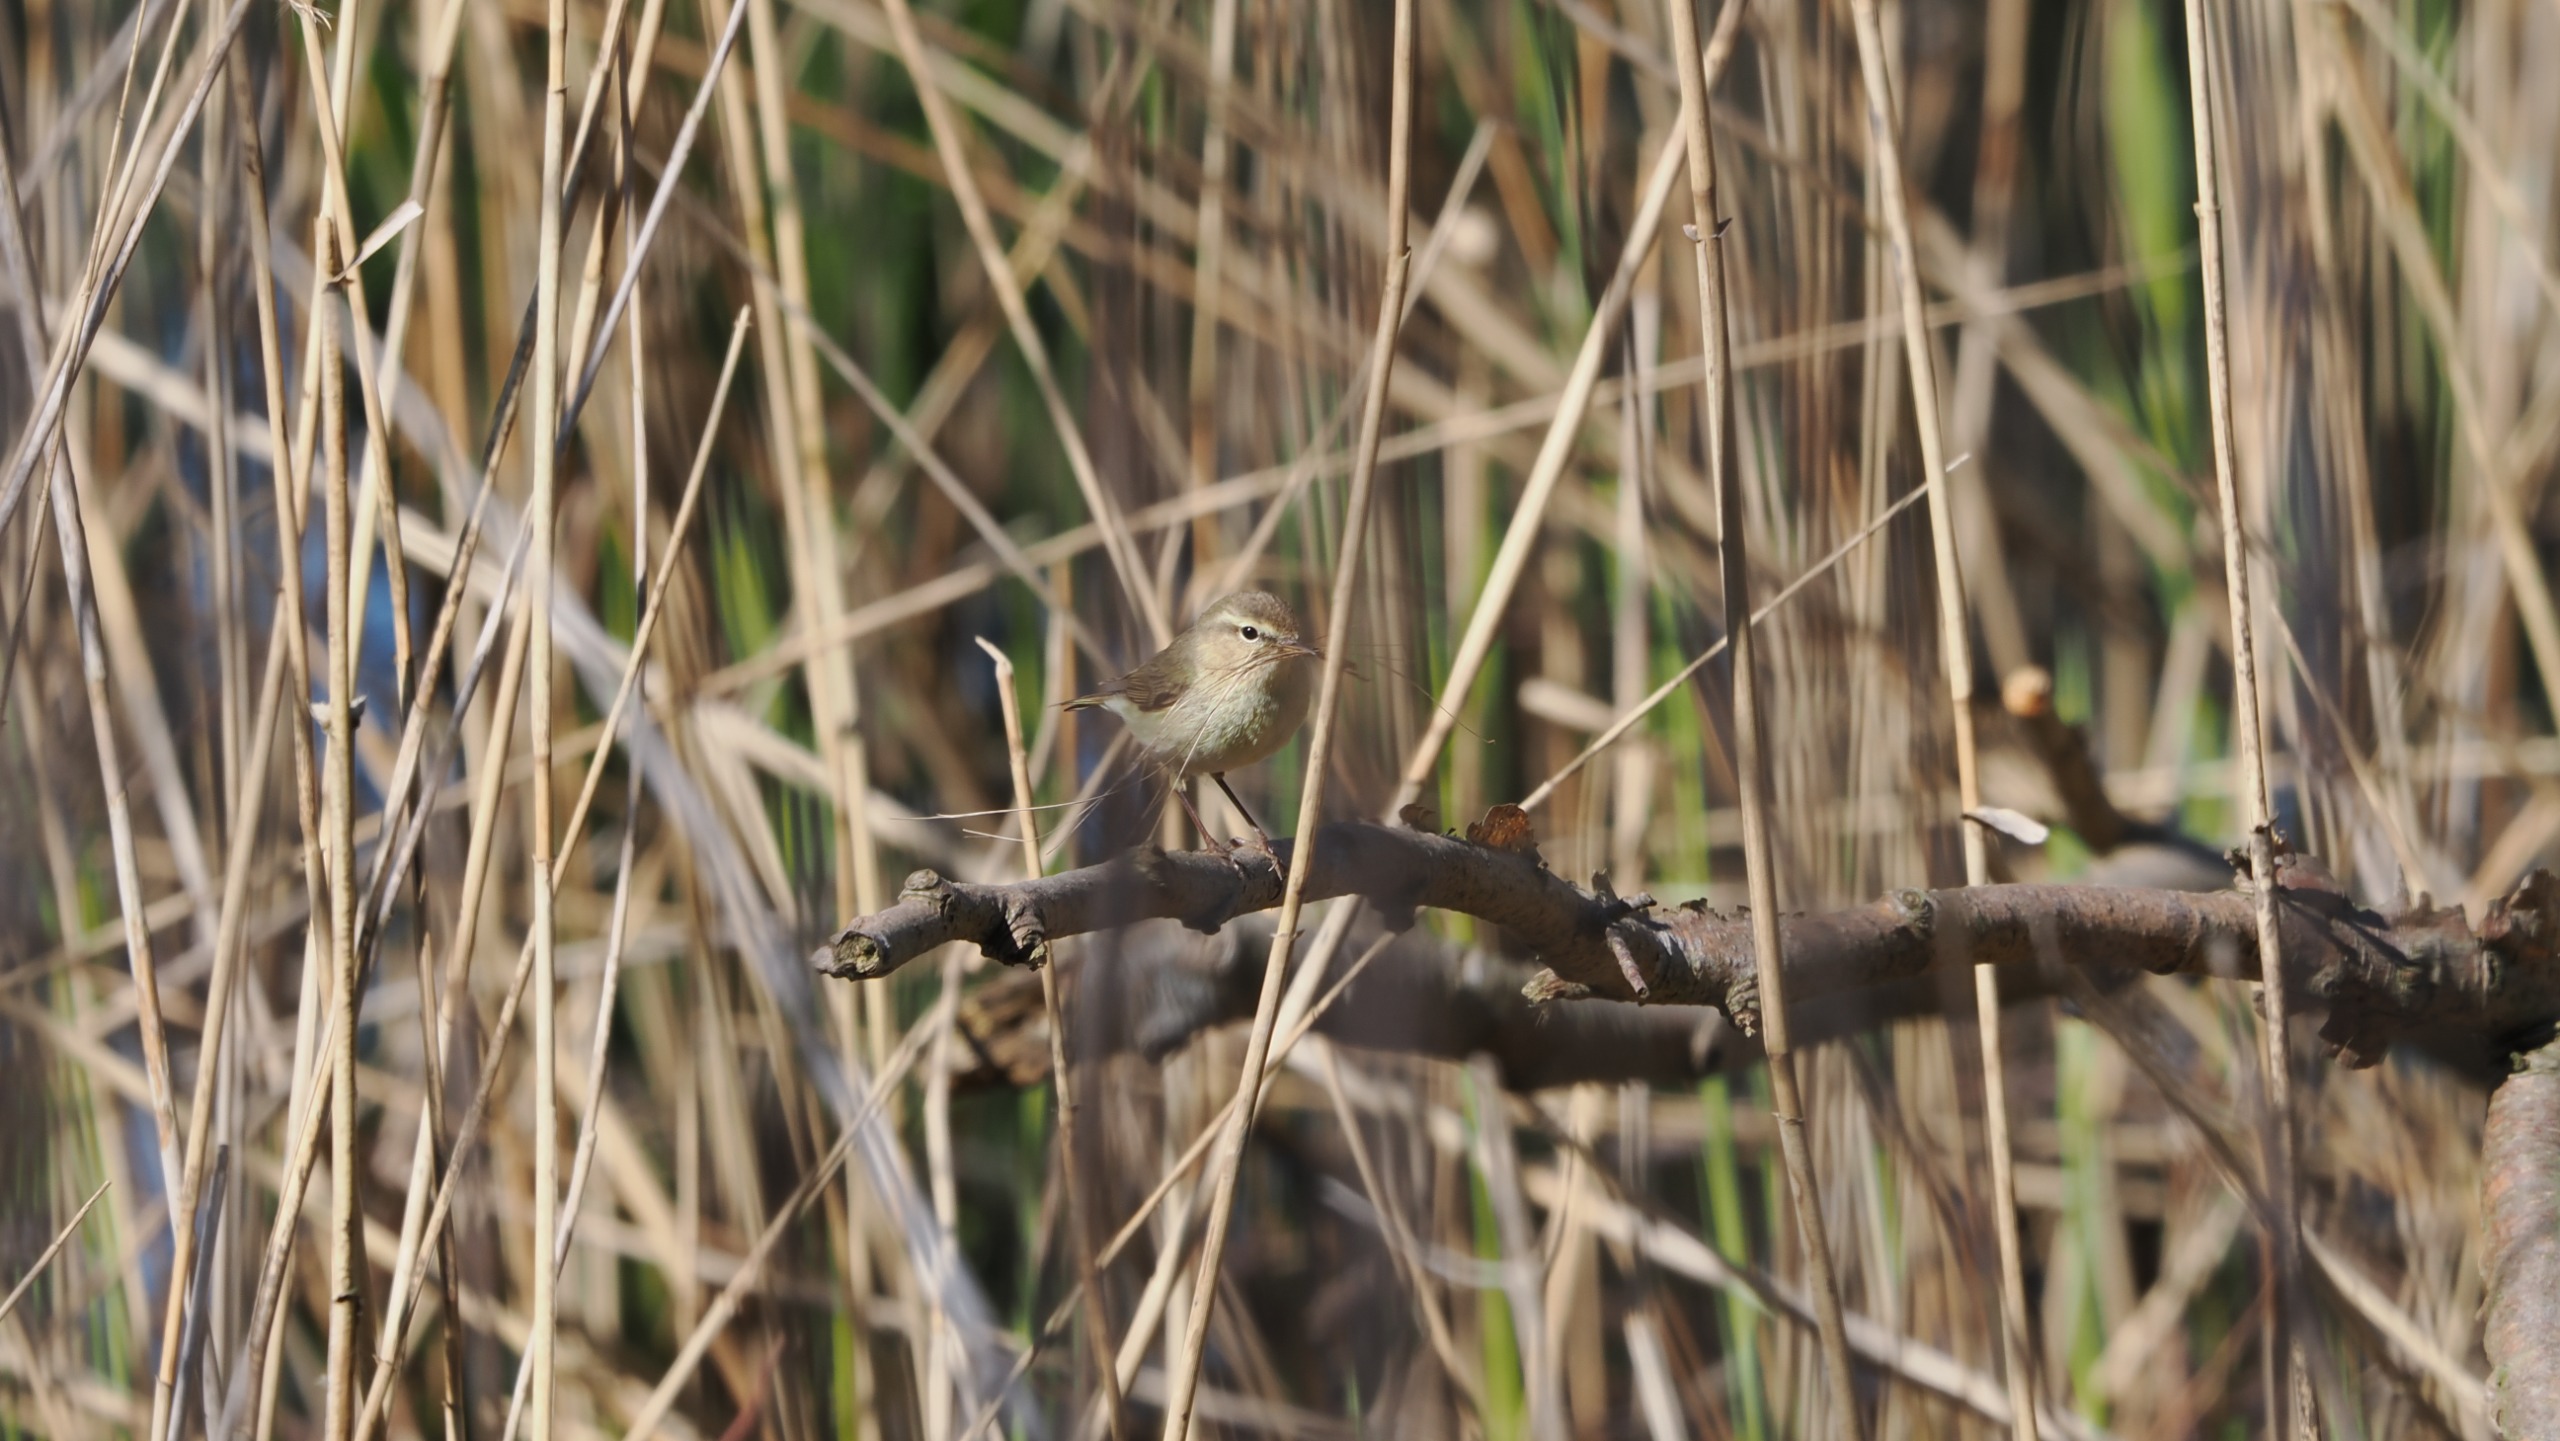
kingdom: Animalia
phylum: Chordata
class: Aves
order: Passeriformes
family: Phylloscopidae
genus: Phylloscopus
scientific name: Phylloscopus collybita
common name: Gransanger
